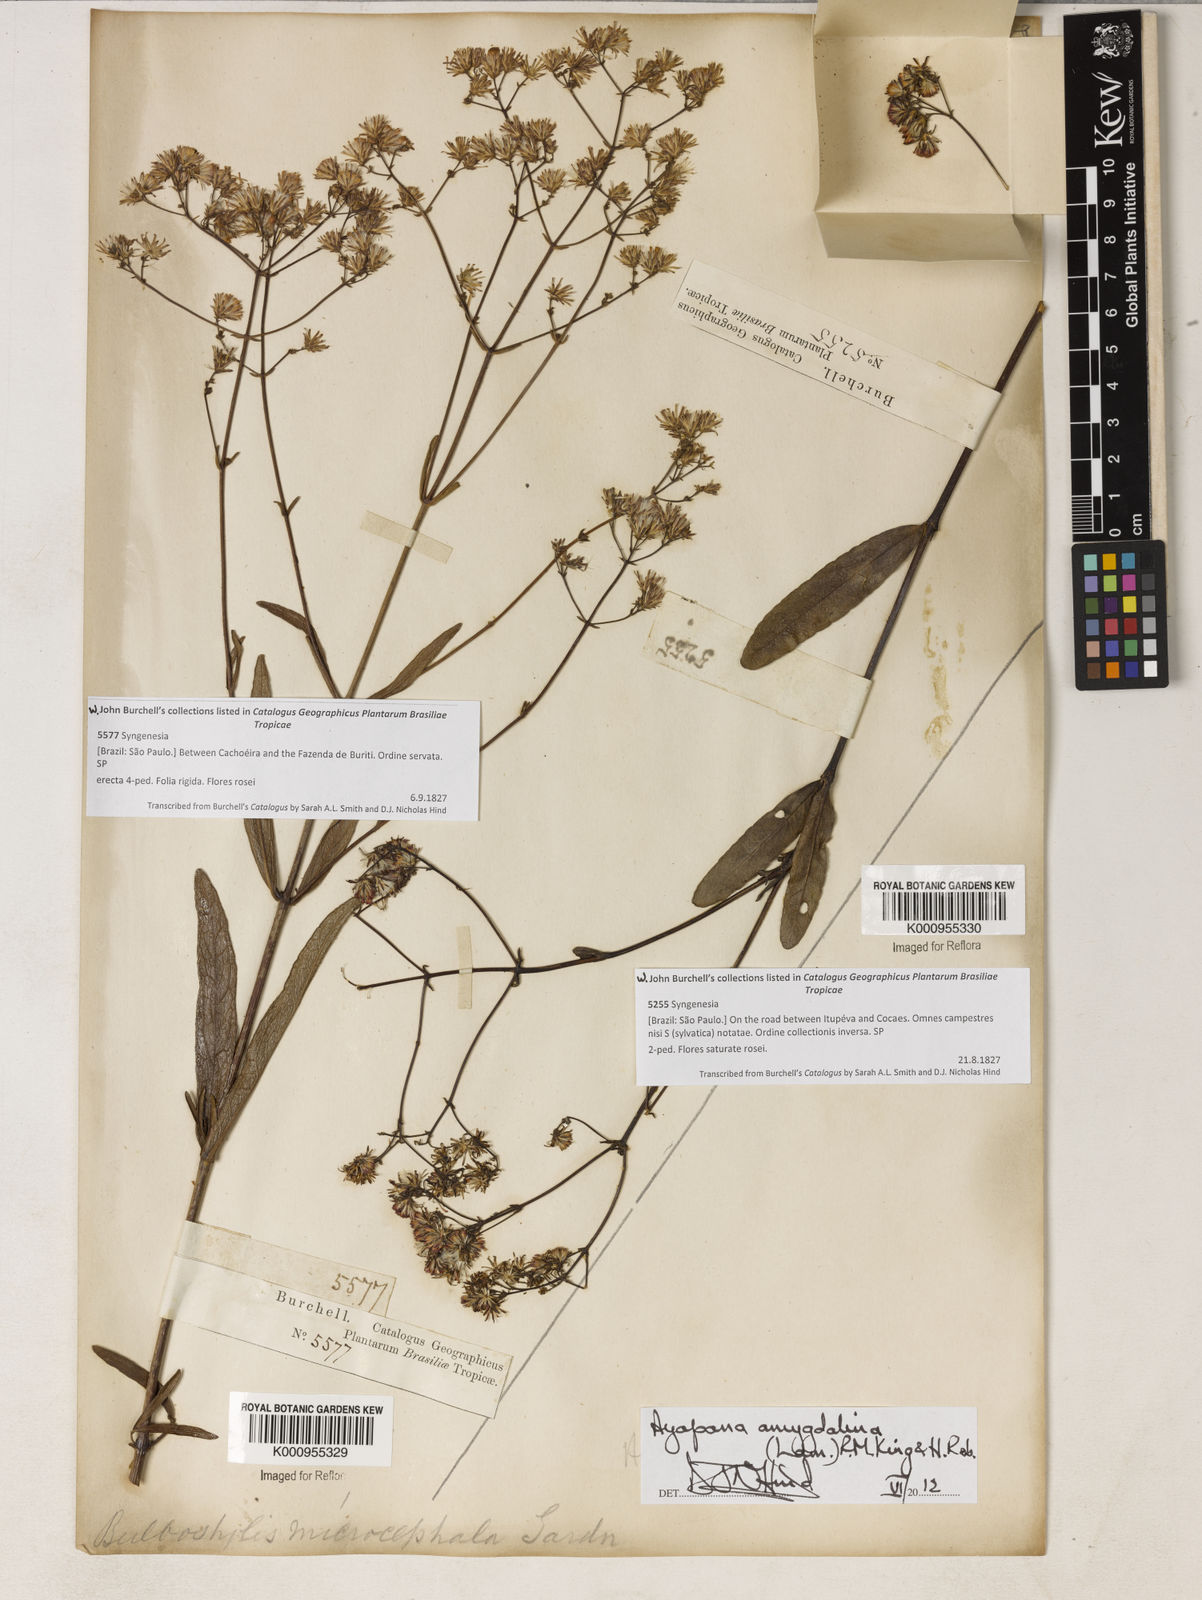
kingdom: Plantae
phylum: Tracheophyta
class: Magnoliopsida
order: Asterales
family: Asteraceae
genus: Ayapana
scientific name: Ayapana amygdalina
